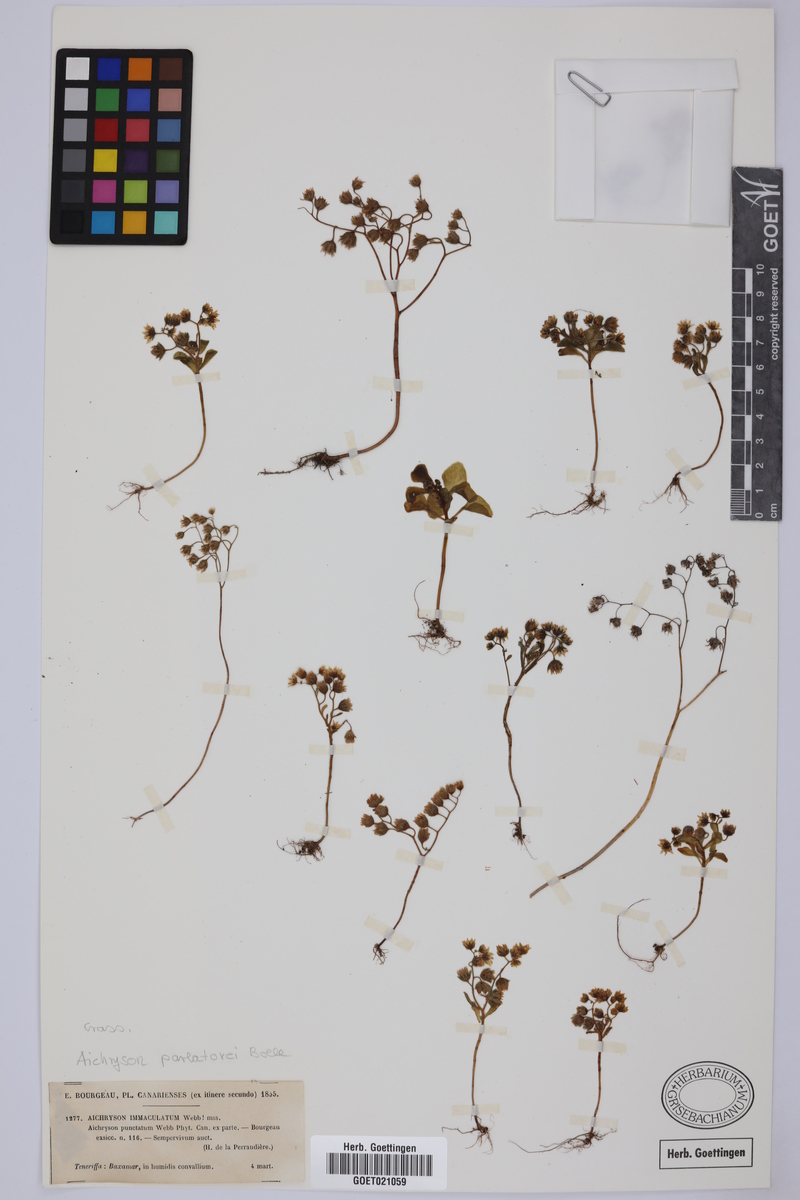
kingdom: Plantae
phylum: Tracheophyta
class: Magnoliopsida
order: Saxifragales
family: Crassulaceae
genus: Aichryson
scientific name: Aichryson parlatorei
